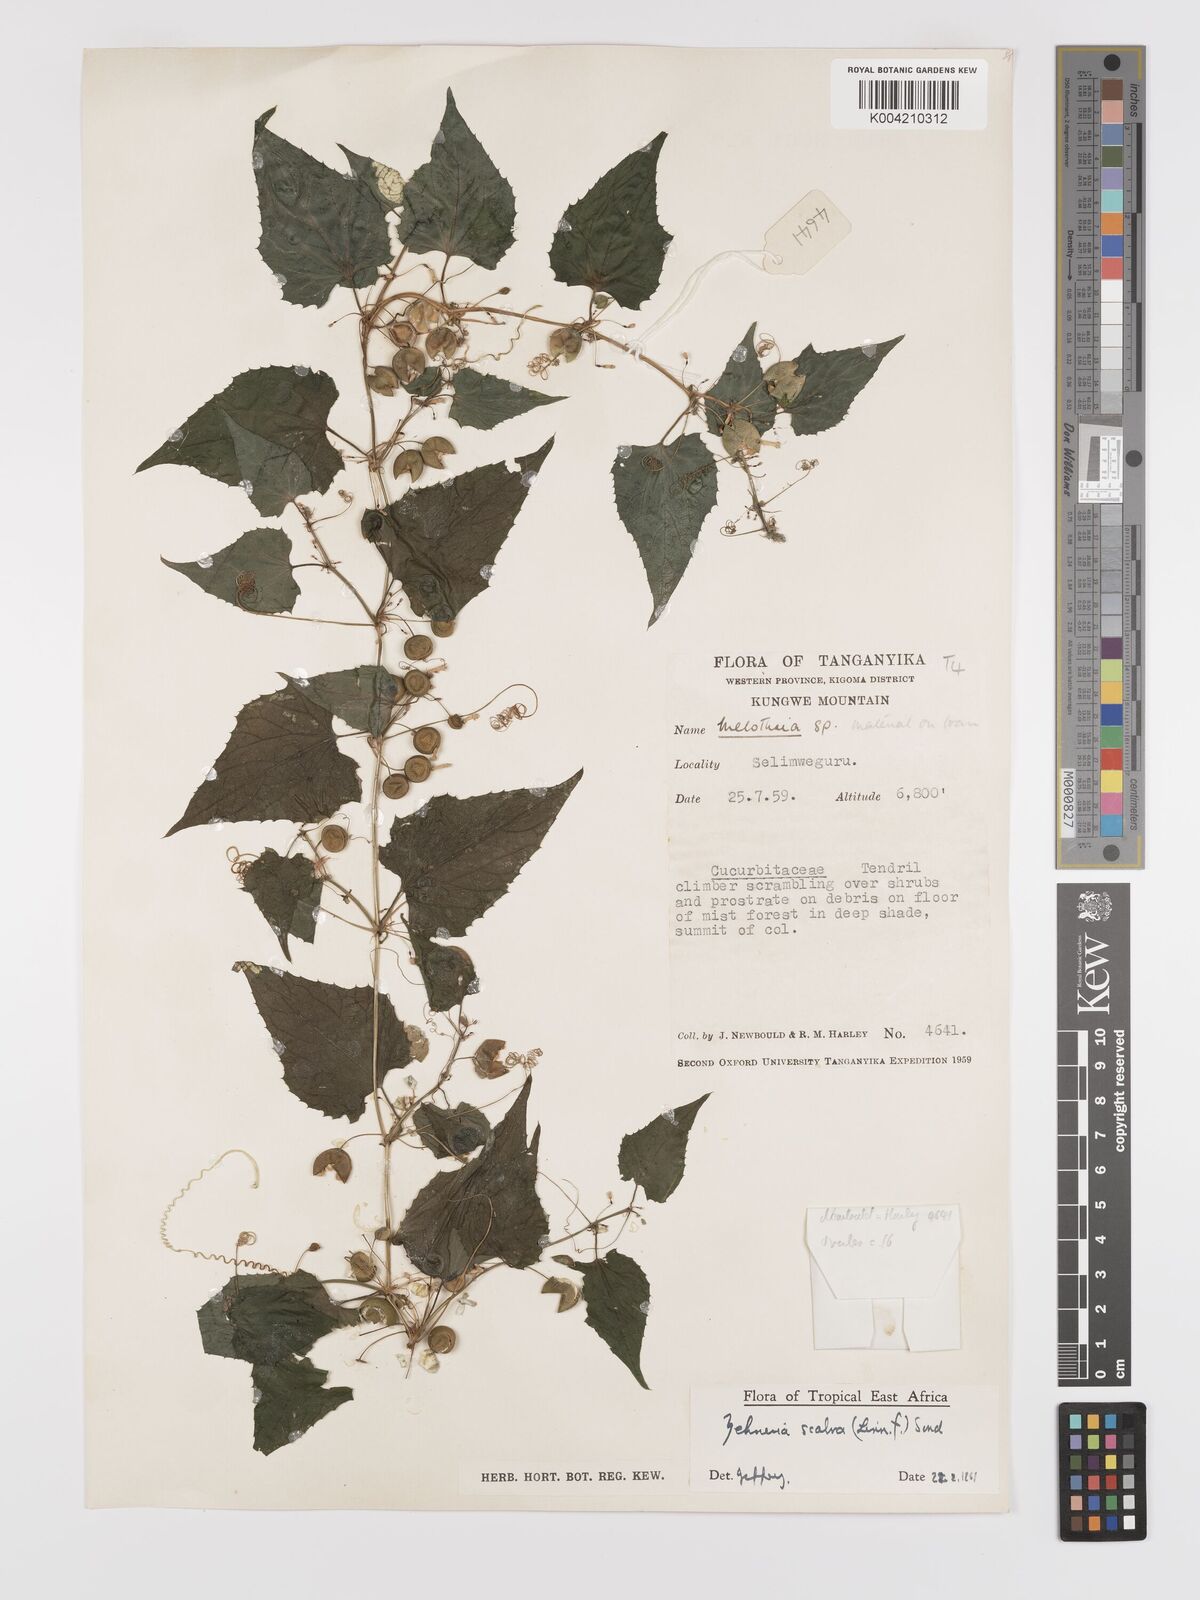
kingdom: Plantae
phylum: Tracheophyta
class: Magnoliopsida
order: Cucurbitales
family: Cucurbitaceae
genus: Zehneria
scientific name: Zehneria scabra
